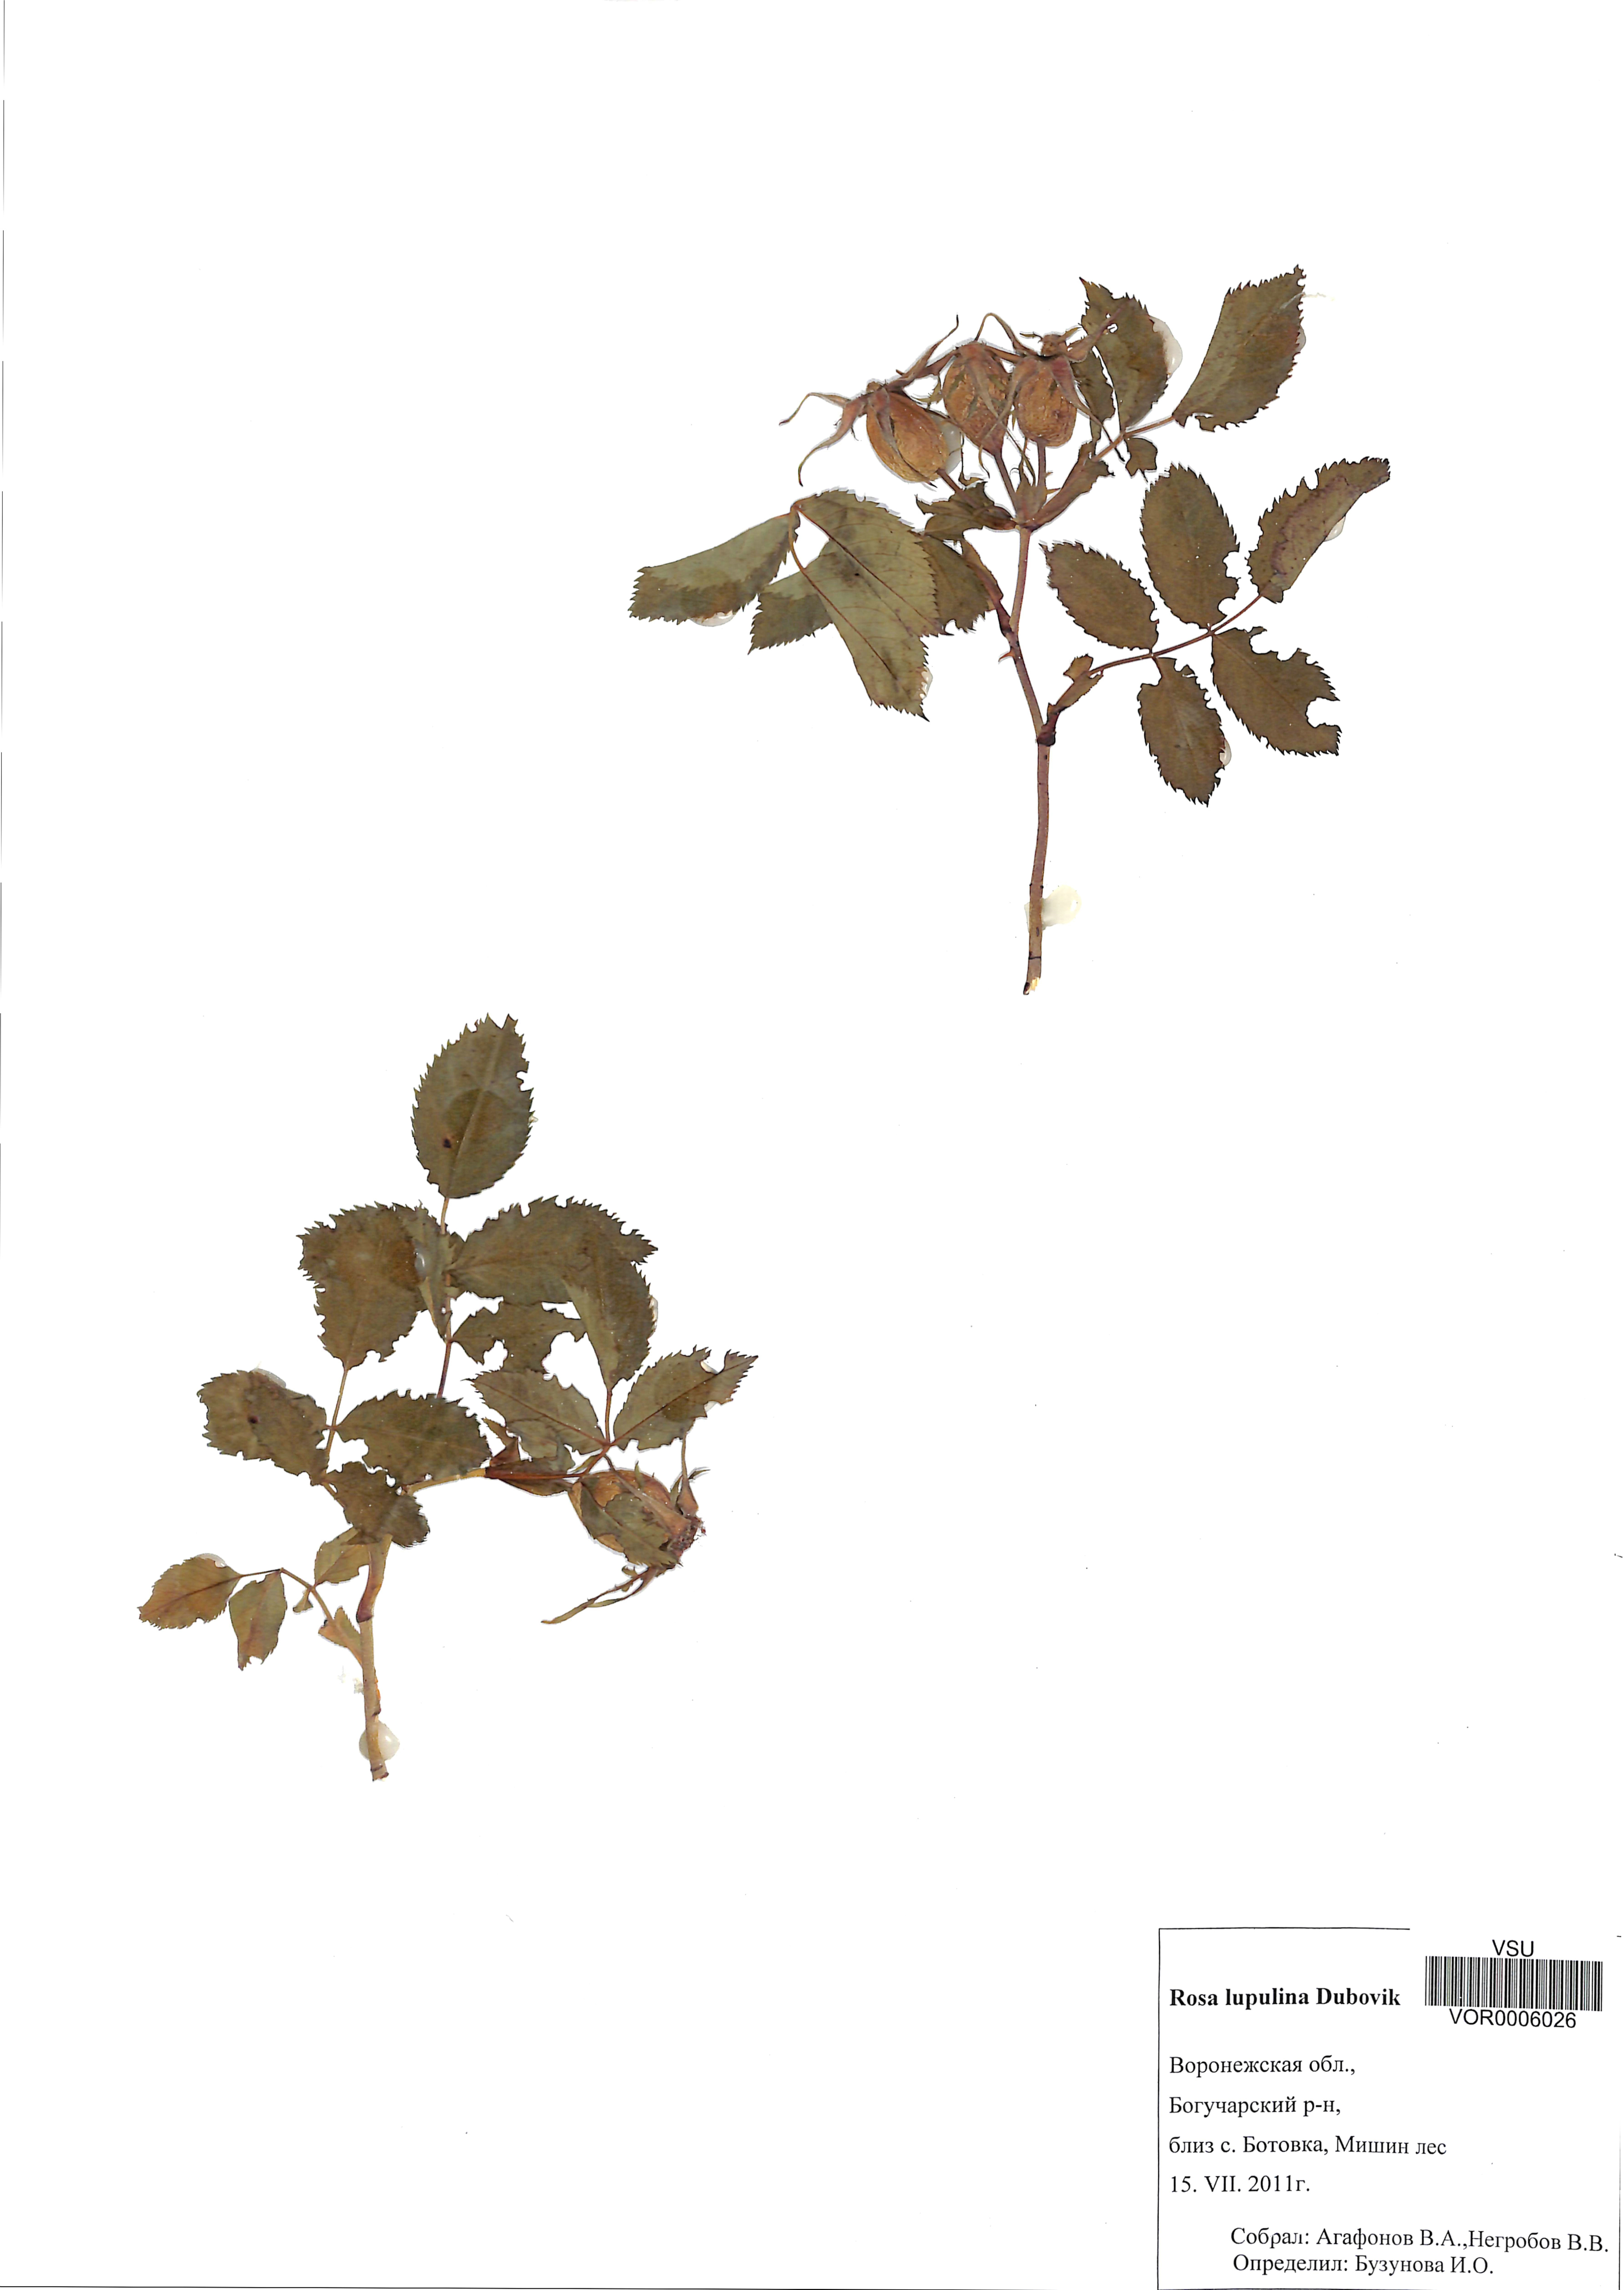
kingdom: Plantae
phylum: Tracheophyta
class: Magnoliopsida
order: Rosales
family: Rosaceae
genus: Rosa
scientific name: Rosa
